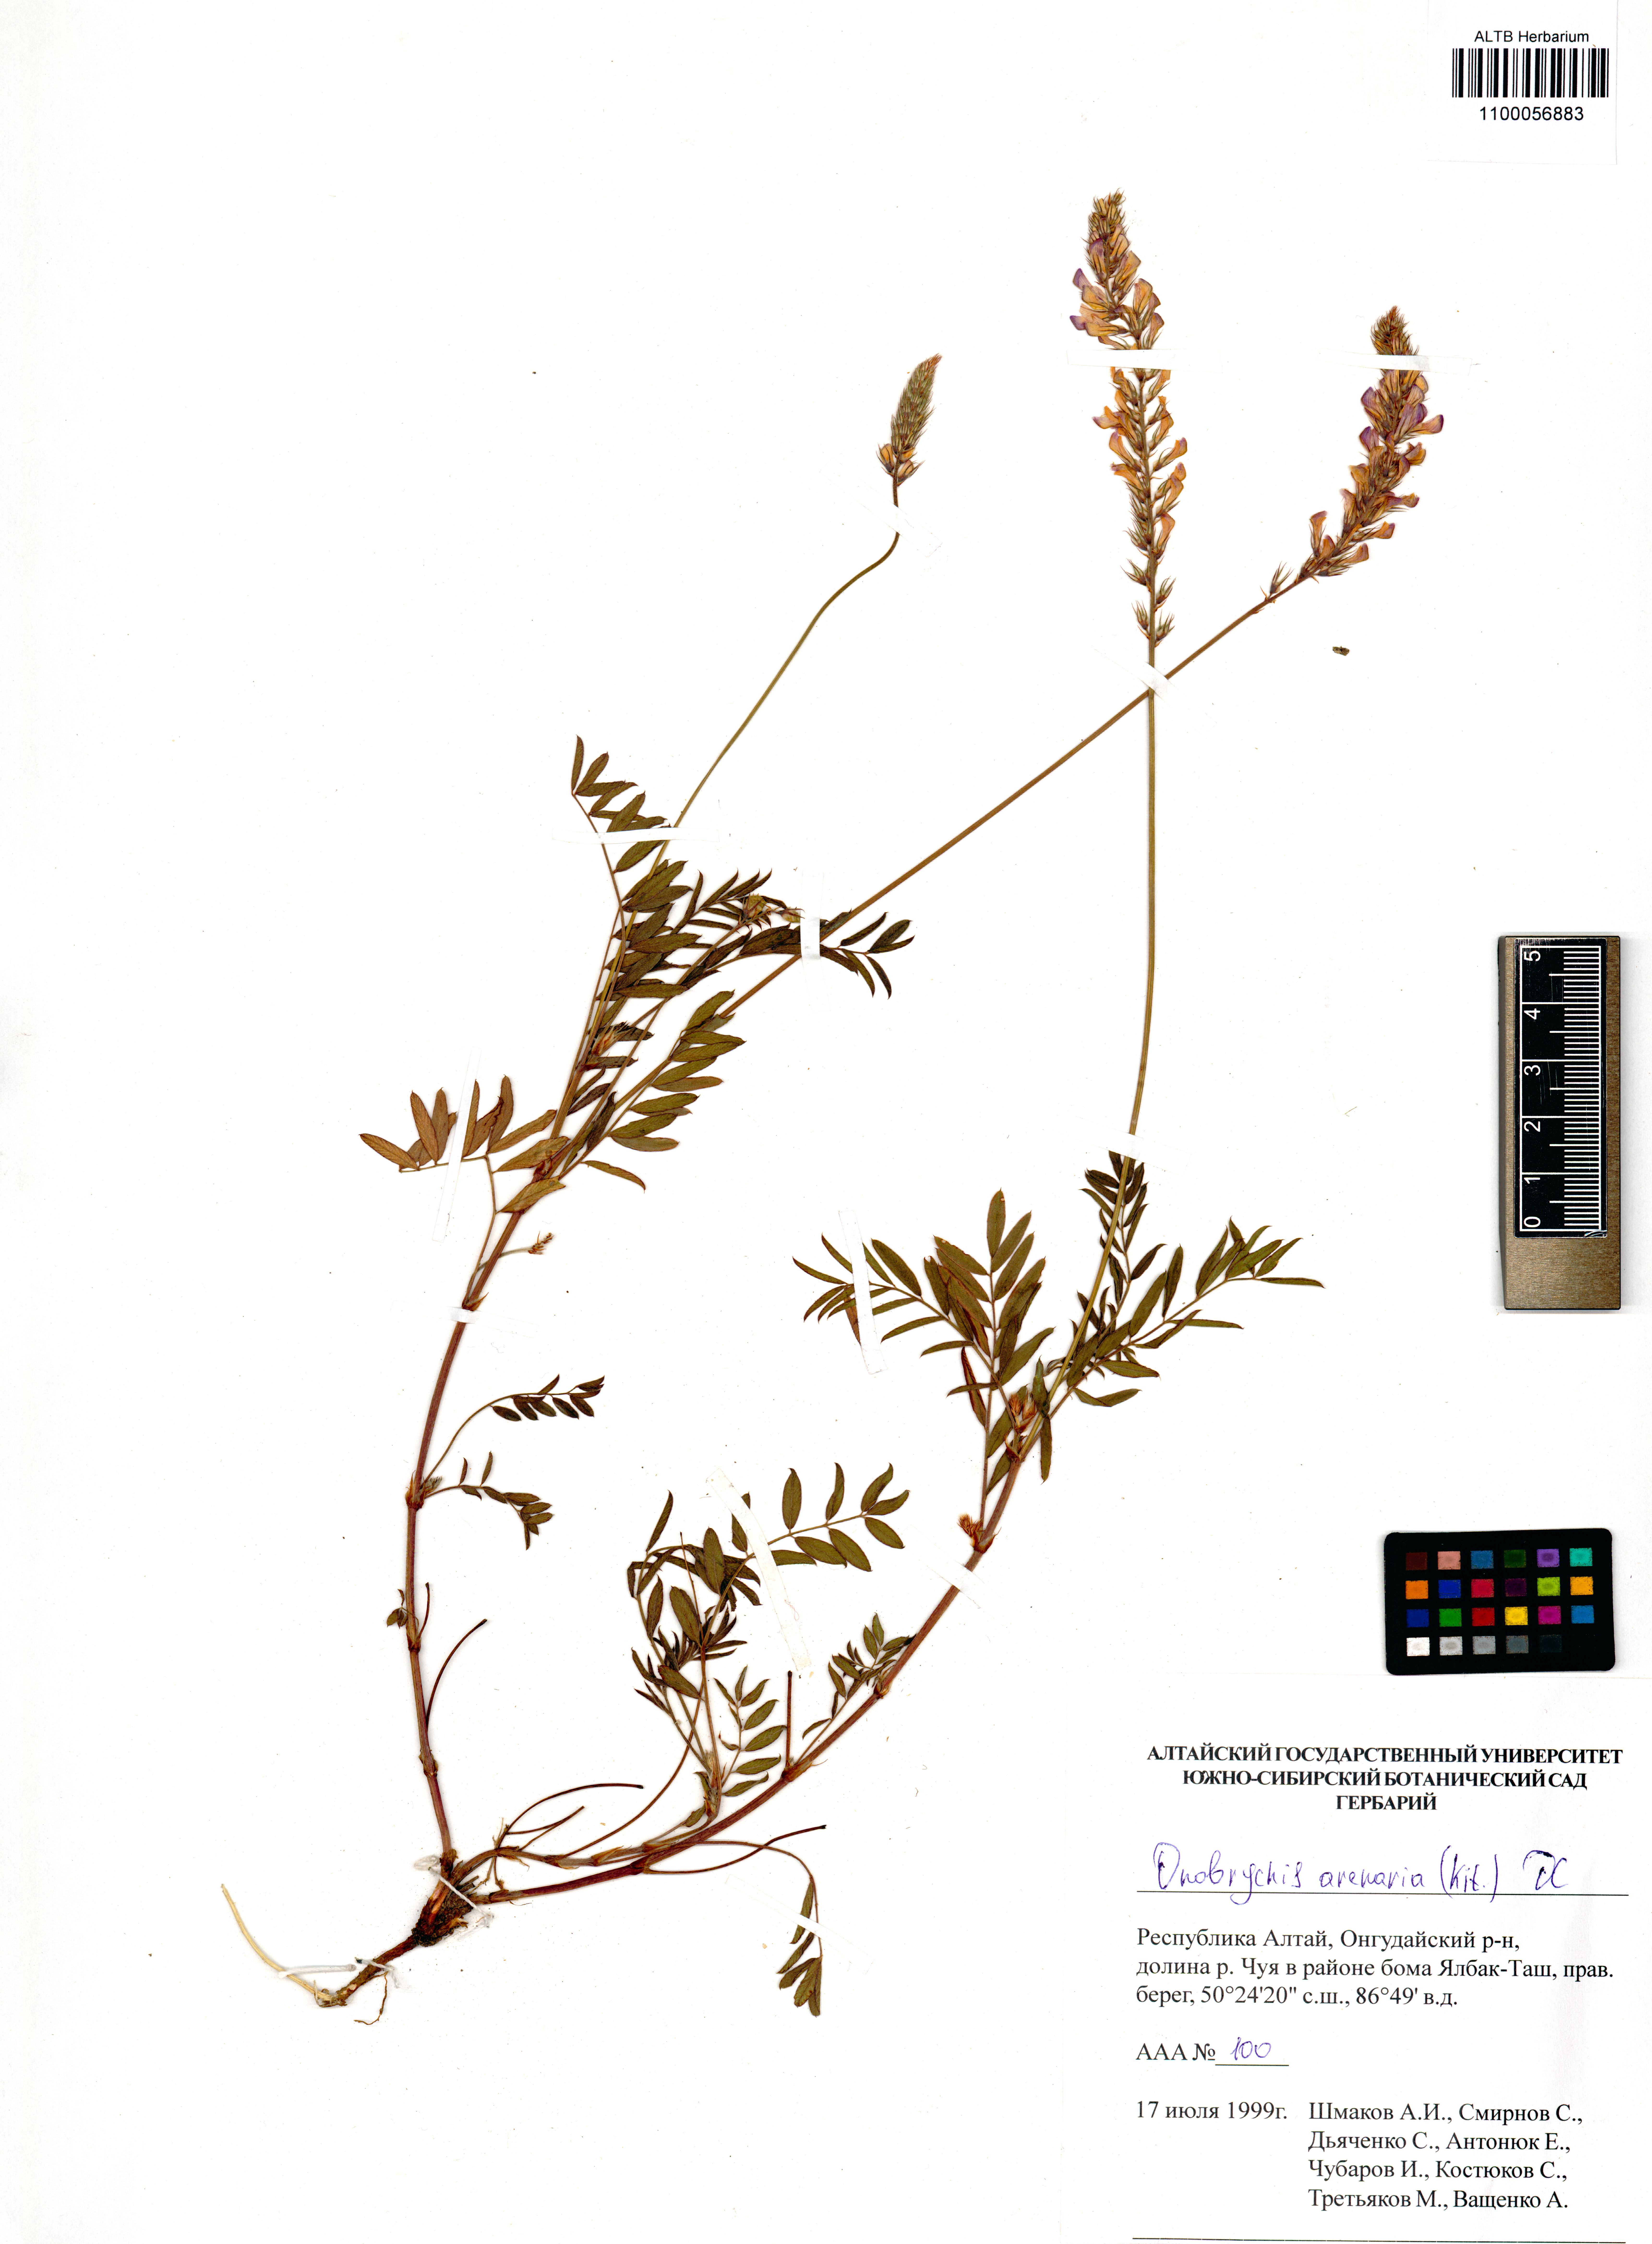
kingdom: Plantae
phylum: Tracheophyta
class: Magnoliopsida
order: Fabales
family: Fabaceae
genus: Onobrychis
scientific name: Onobrychis arenaria
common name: Sand esparcet
